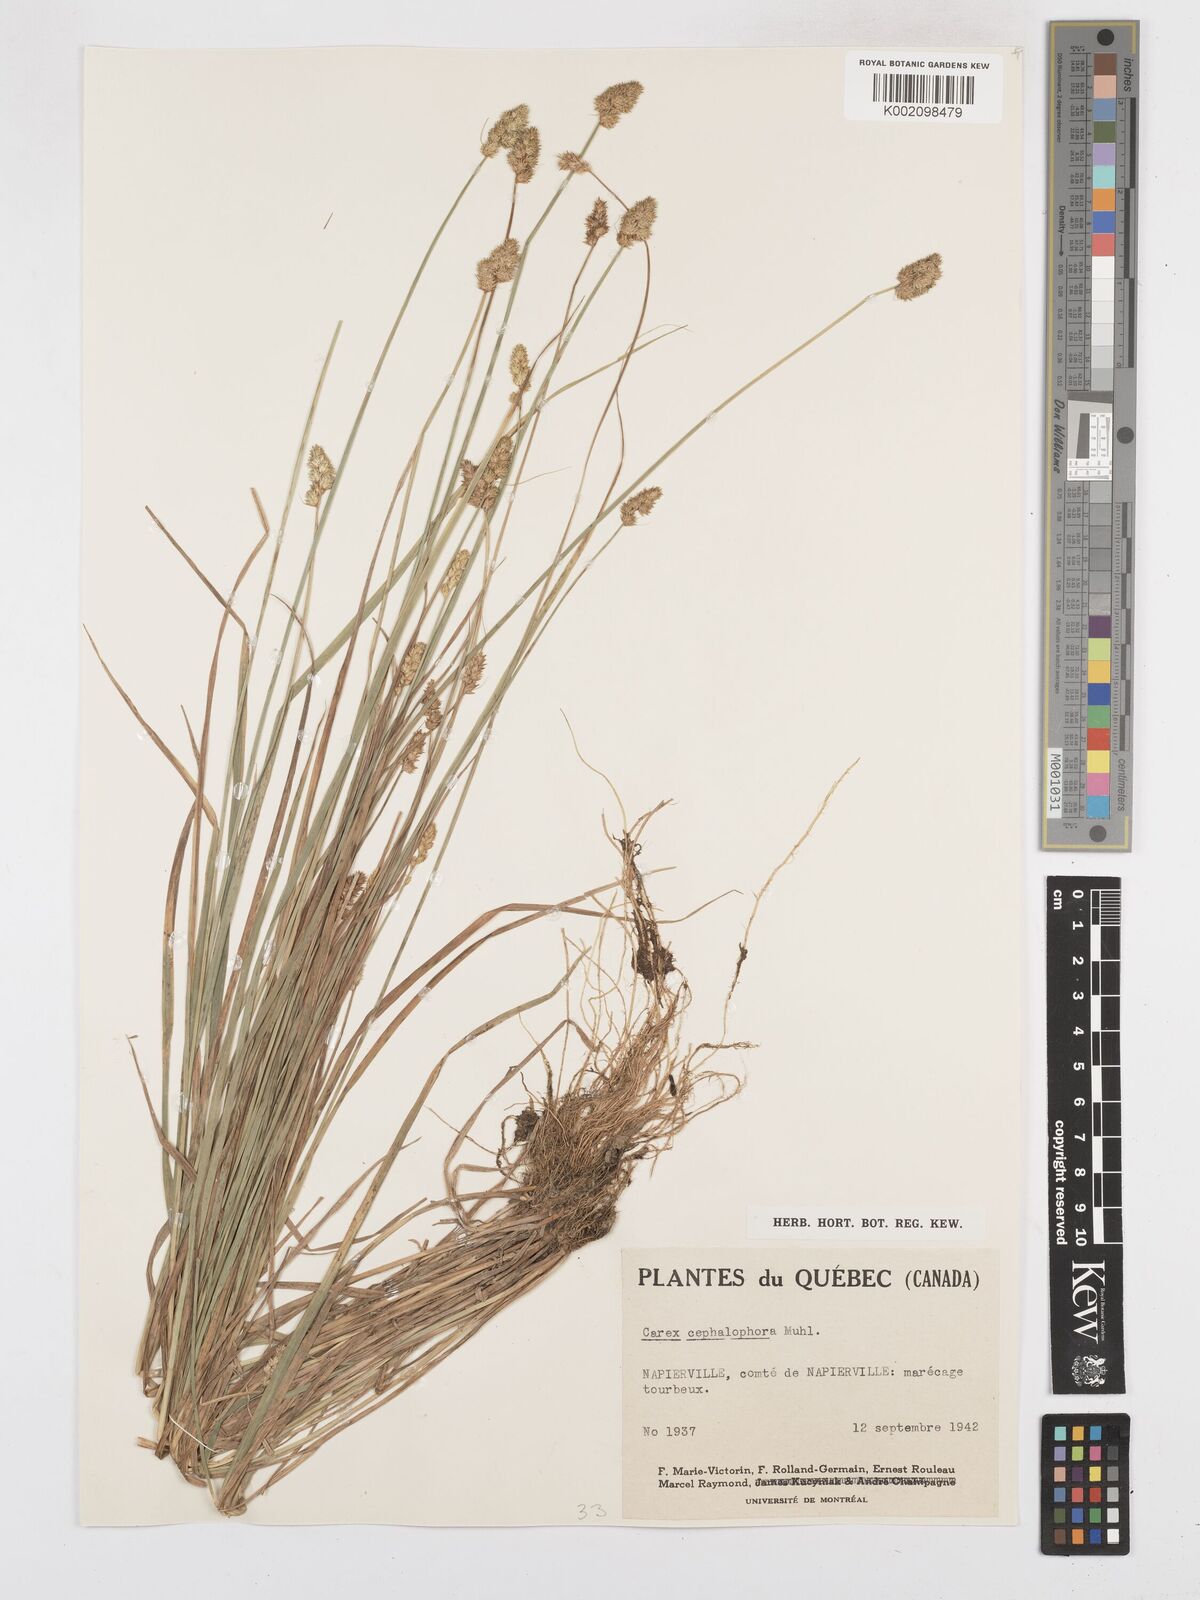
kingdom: Plantae
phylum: Tracheophyta
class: Liliopsida
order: Poales
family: Cyperaceae
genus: Carex
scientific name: Carex cephalophora
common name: Oval-headed sedge
